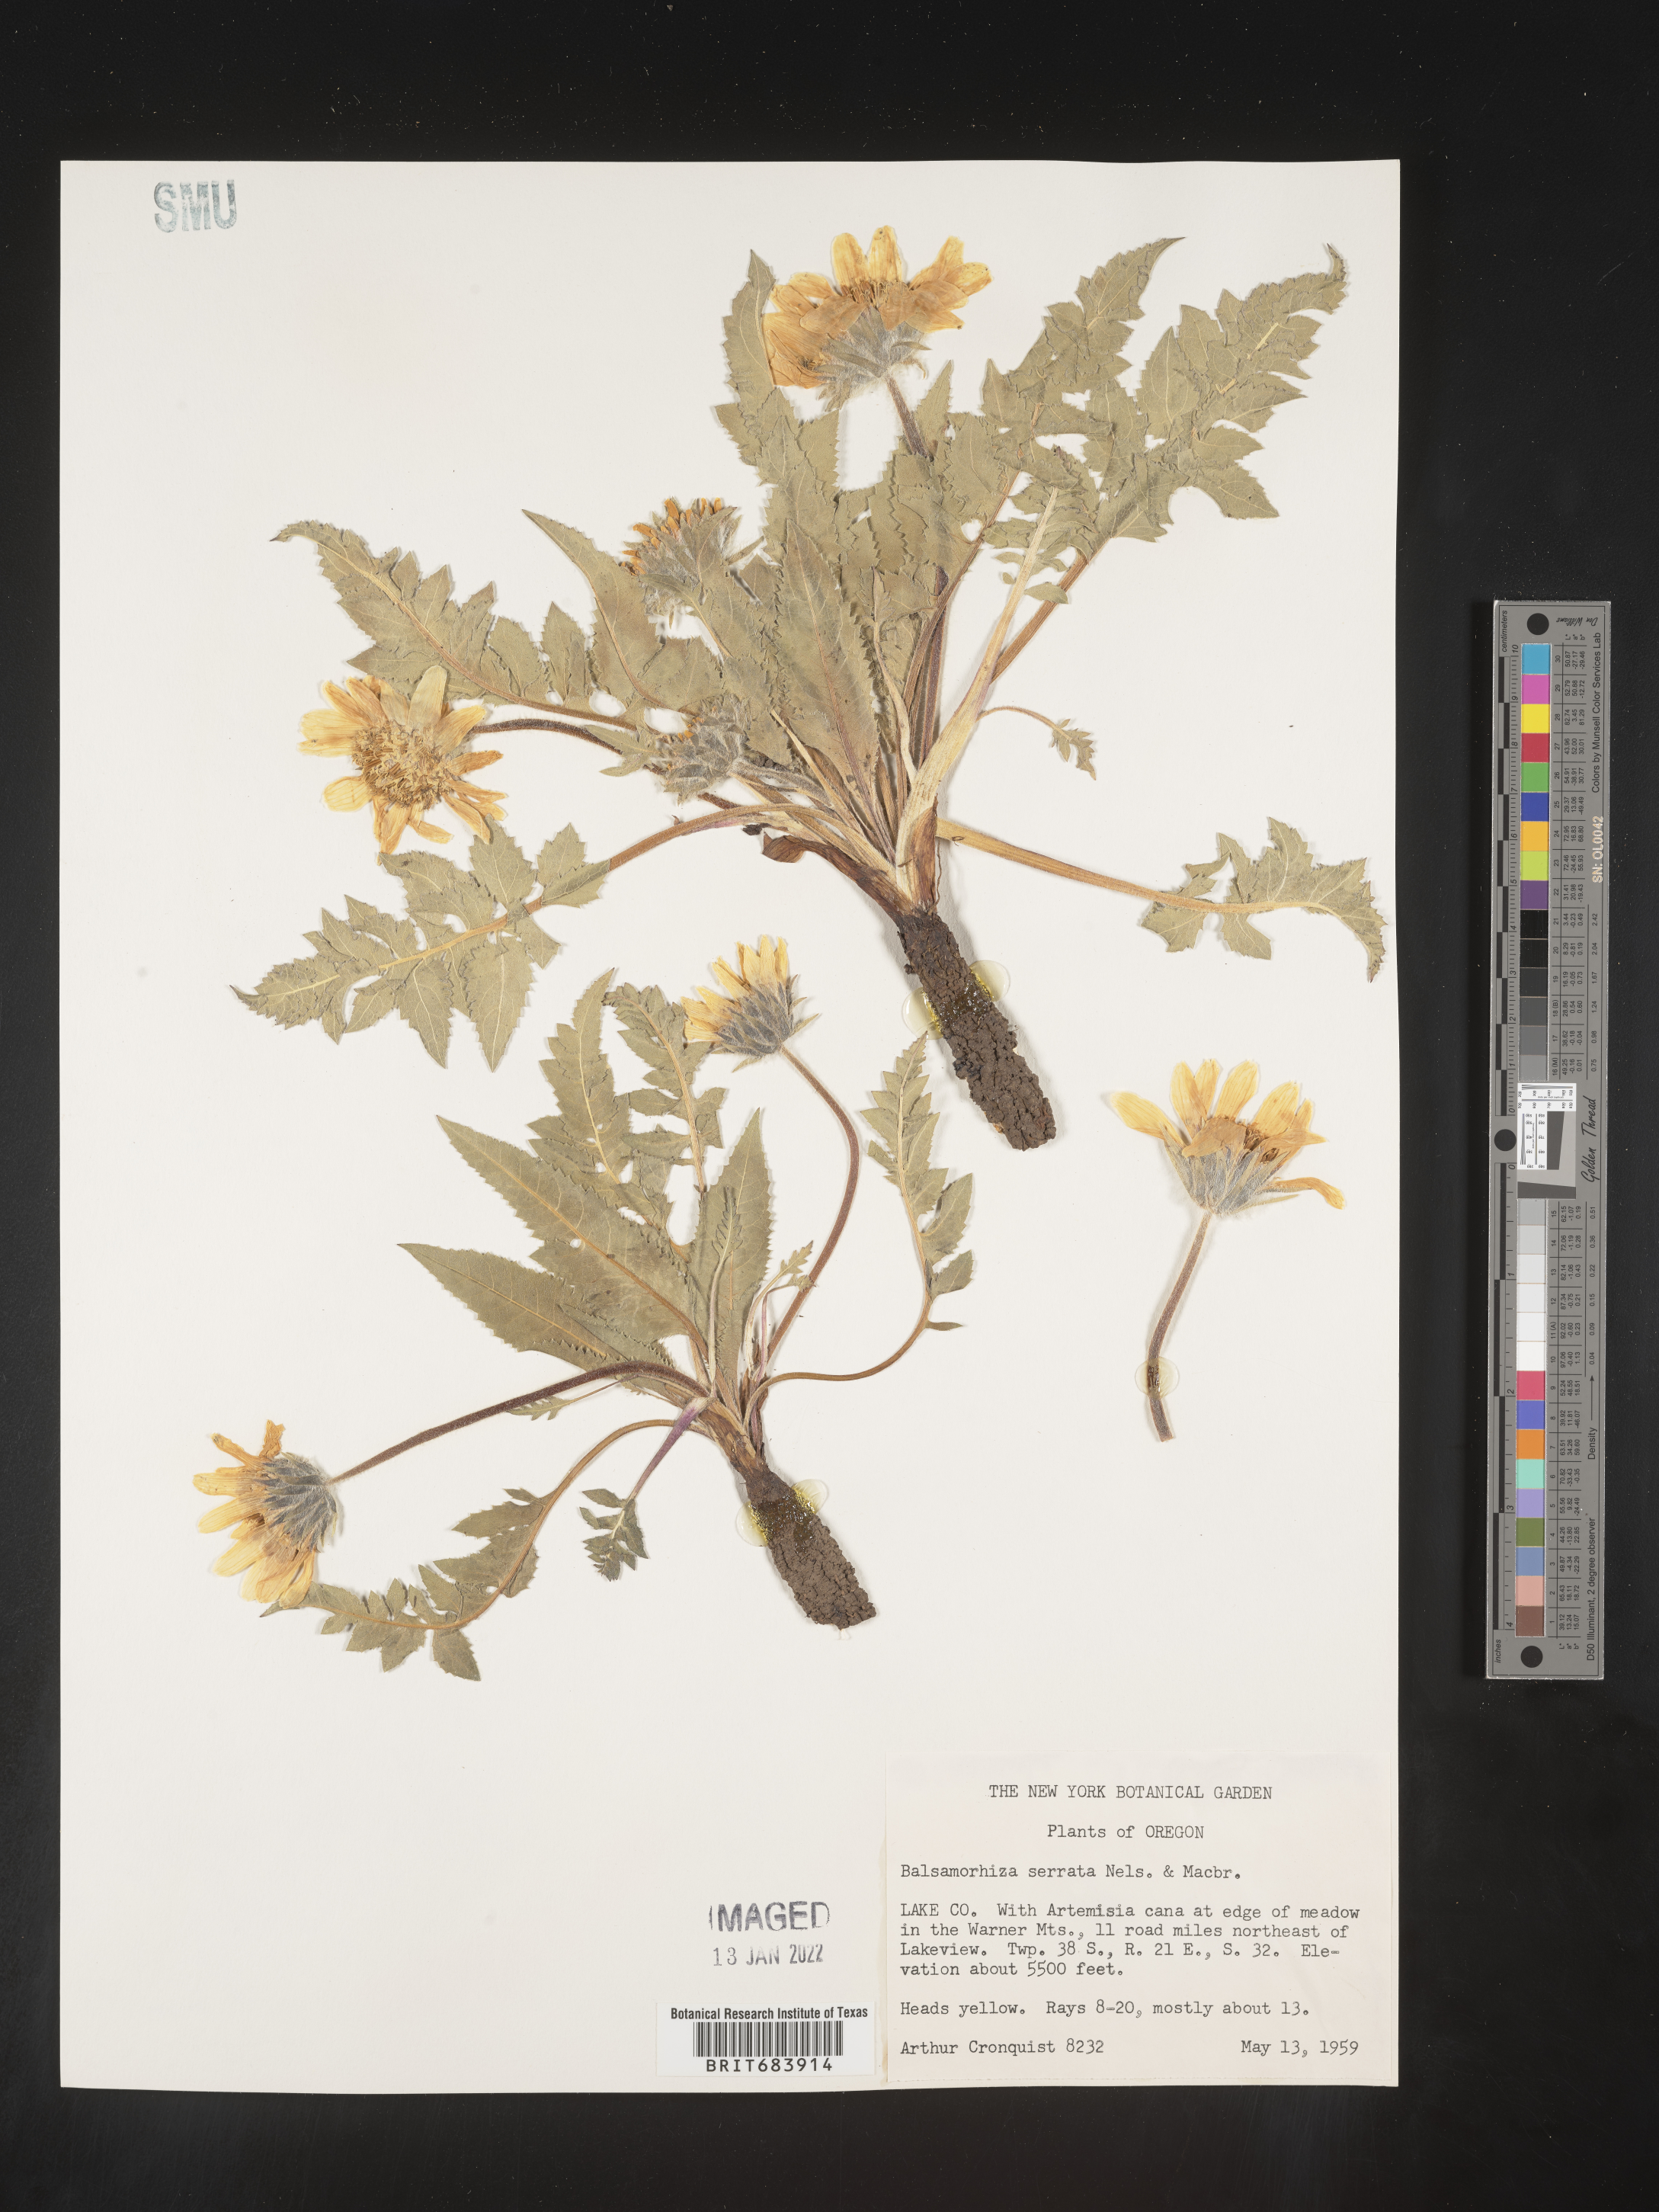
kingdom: Plantae
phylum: Tracheophyta
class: Magnoliopsida
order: Asterales
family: Asteraceae
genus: Balsamorhiza
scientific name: Balsamorhiza serrata
